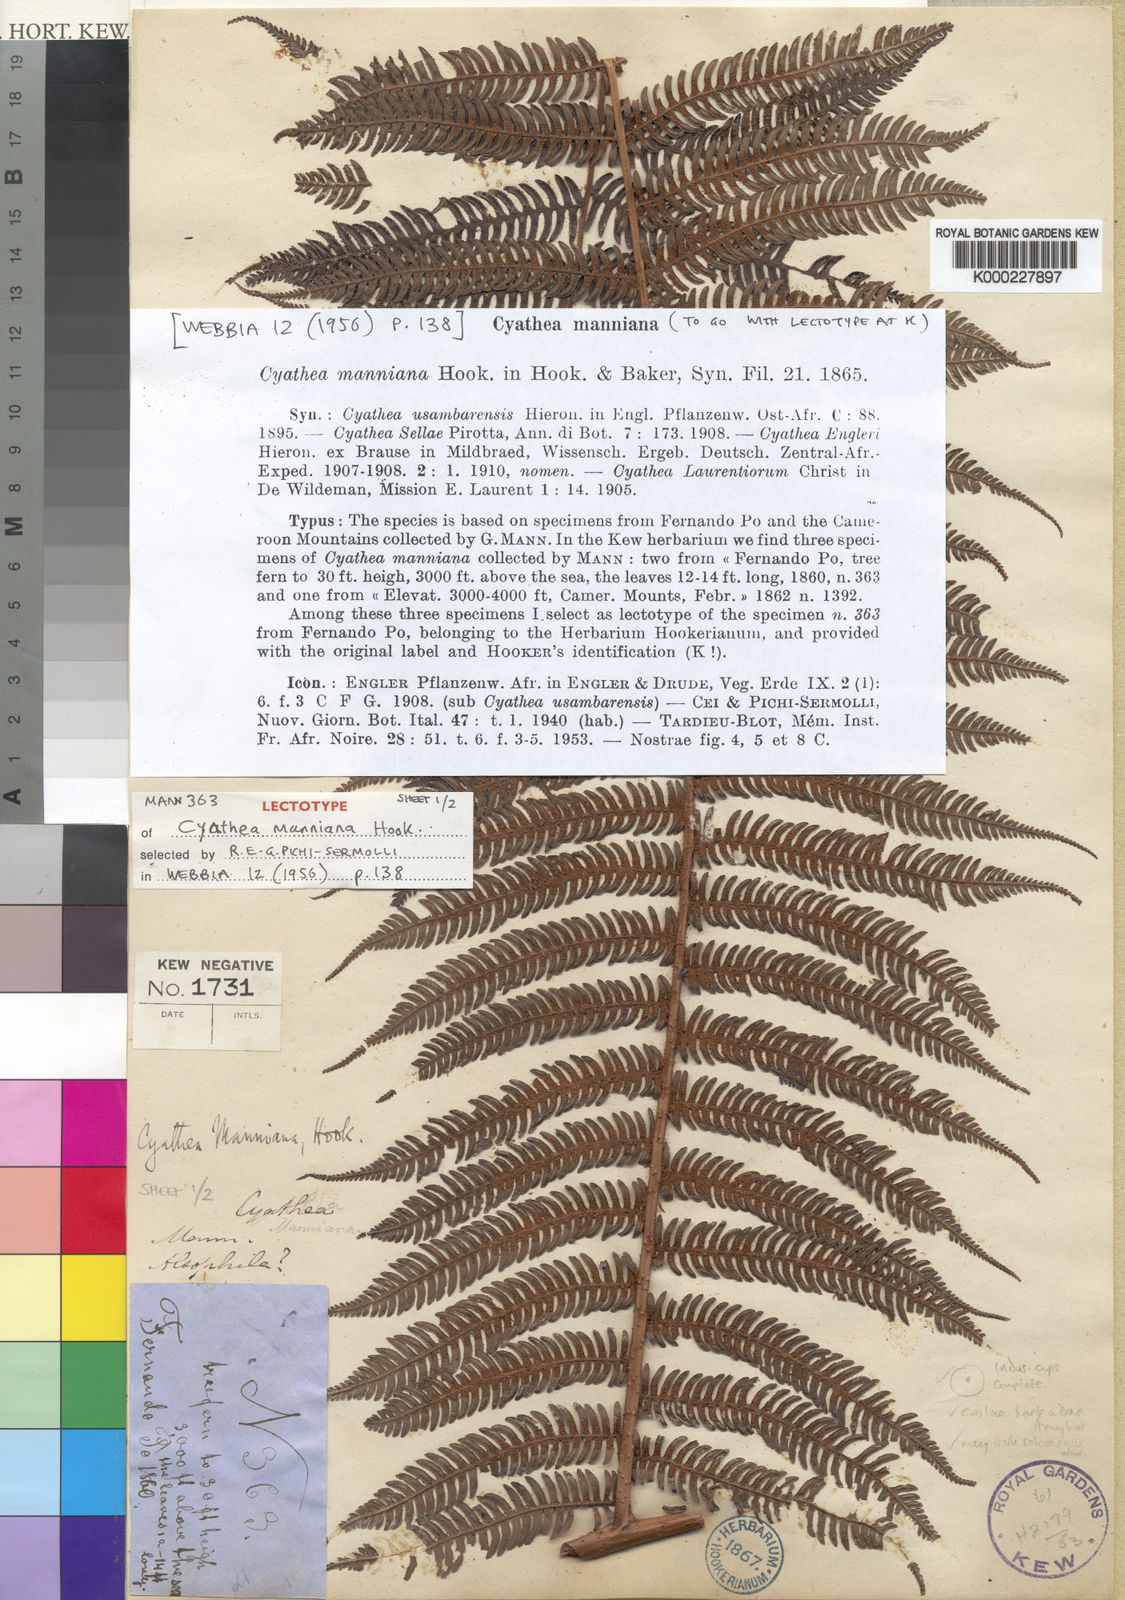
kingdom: Plantae
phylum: Tracheophyta
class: Polypodiopsida
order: Cyatheales
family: Cyatheaceae
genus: Alsophila
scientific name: Alsophila manniana
